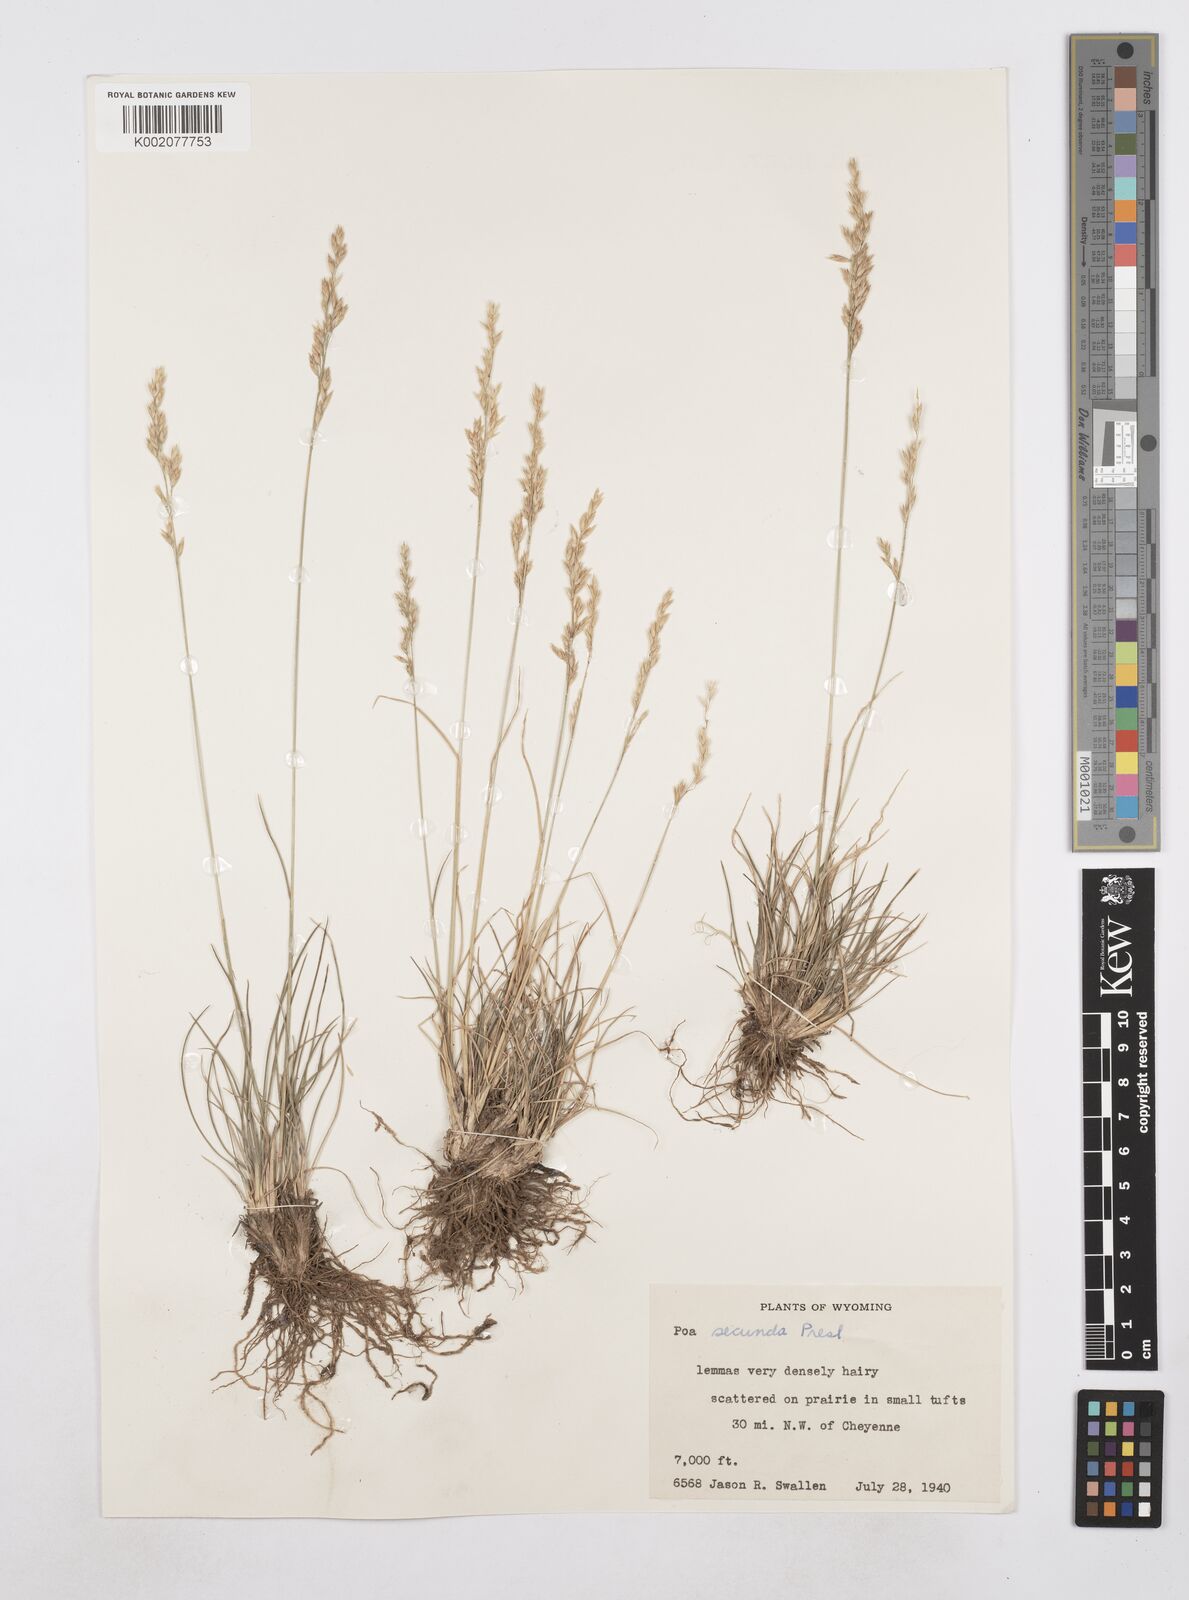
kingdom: Plantae
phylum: Tracheophyta
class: Liliopsida
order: Poales
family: Poaceae
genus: Poa
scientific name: Poa secunda
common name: Sandberg bluegrass
